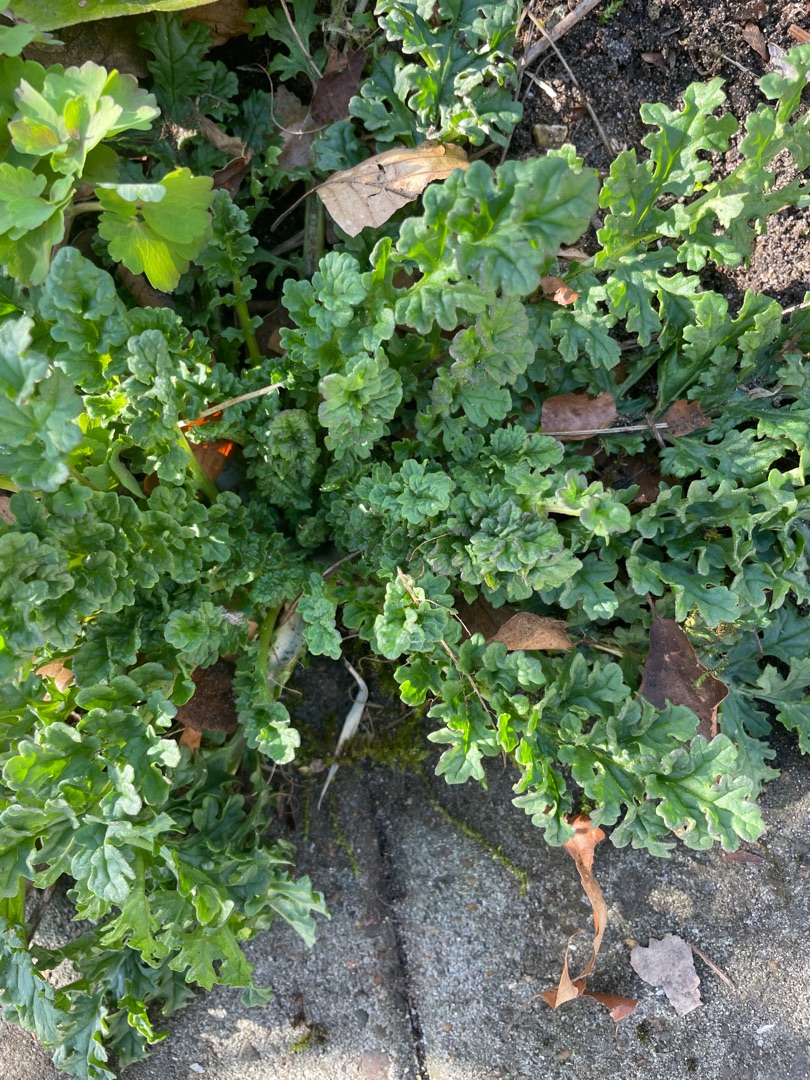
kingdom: Plantae
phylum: Tracheophyta
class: Magnoliopsida
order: Asterales
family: Asteraceae
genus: Jacobaea
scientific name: Jacobaea vulgaris
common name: Eng-brandbæger
